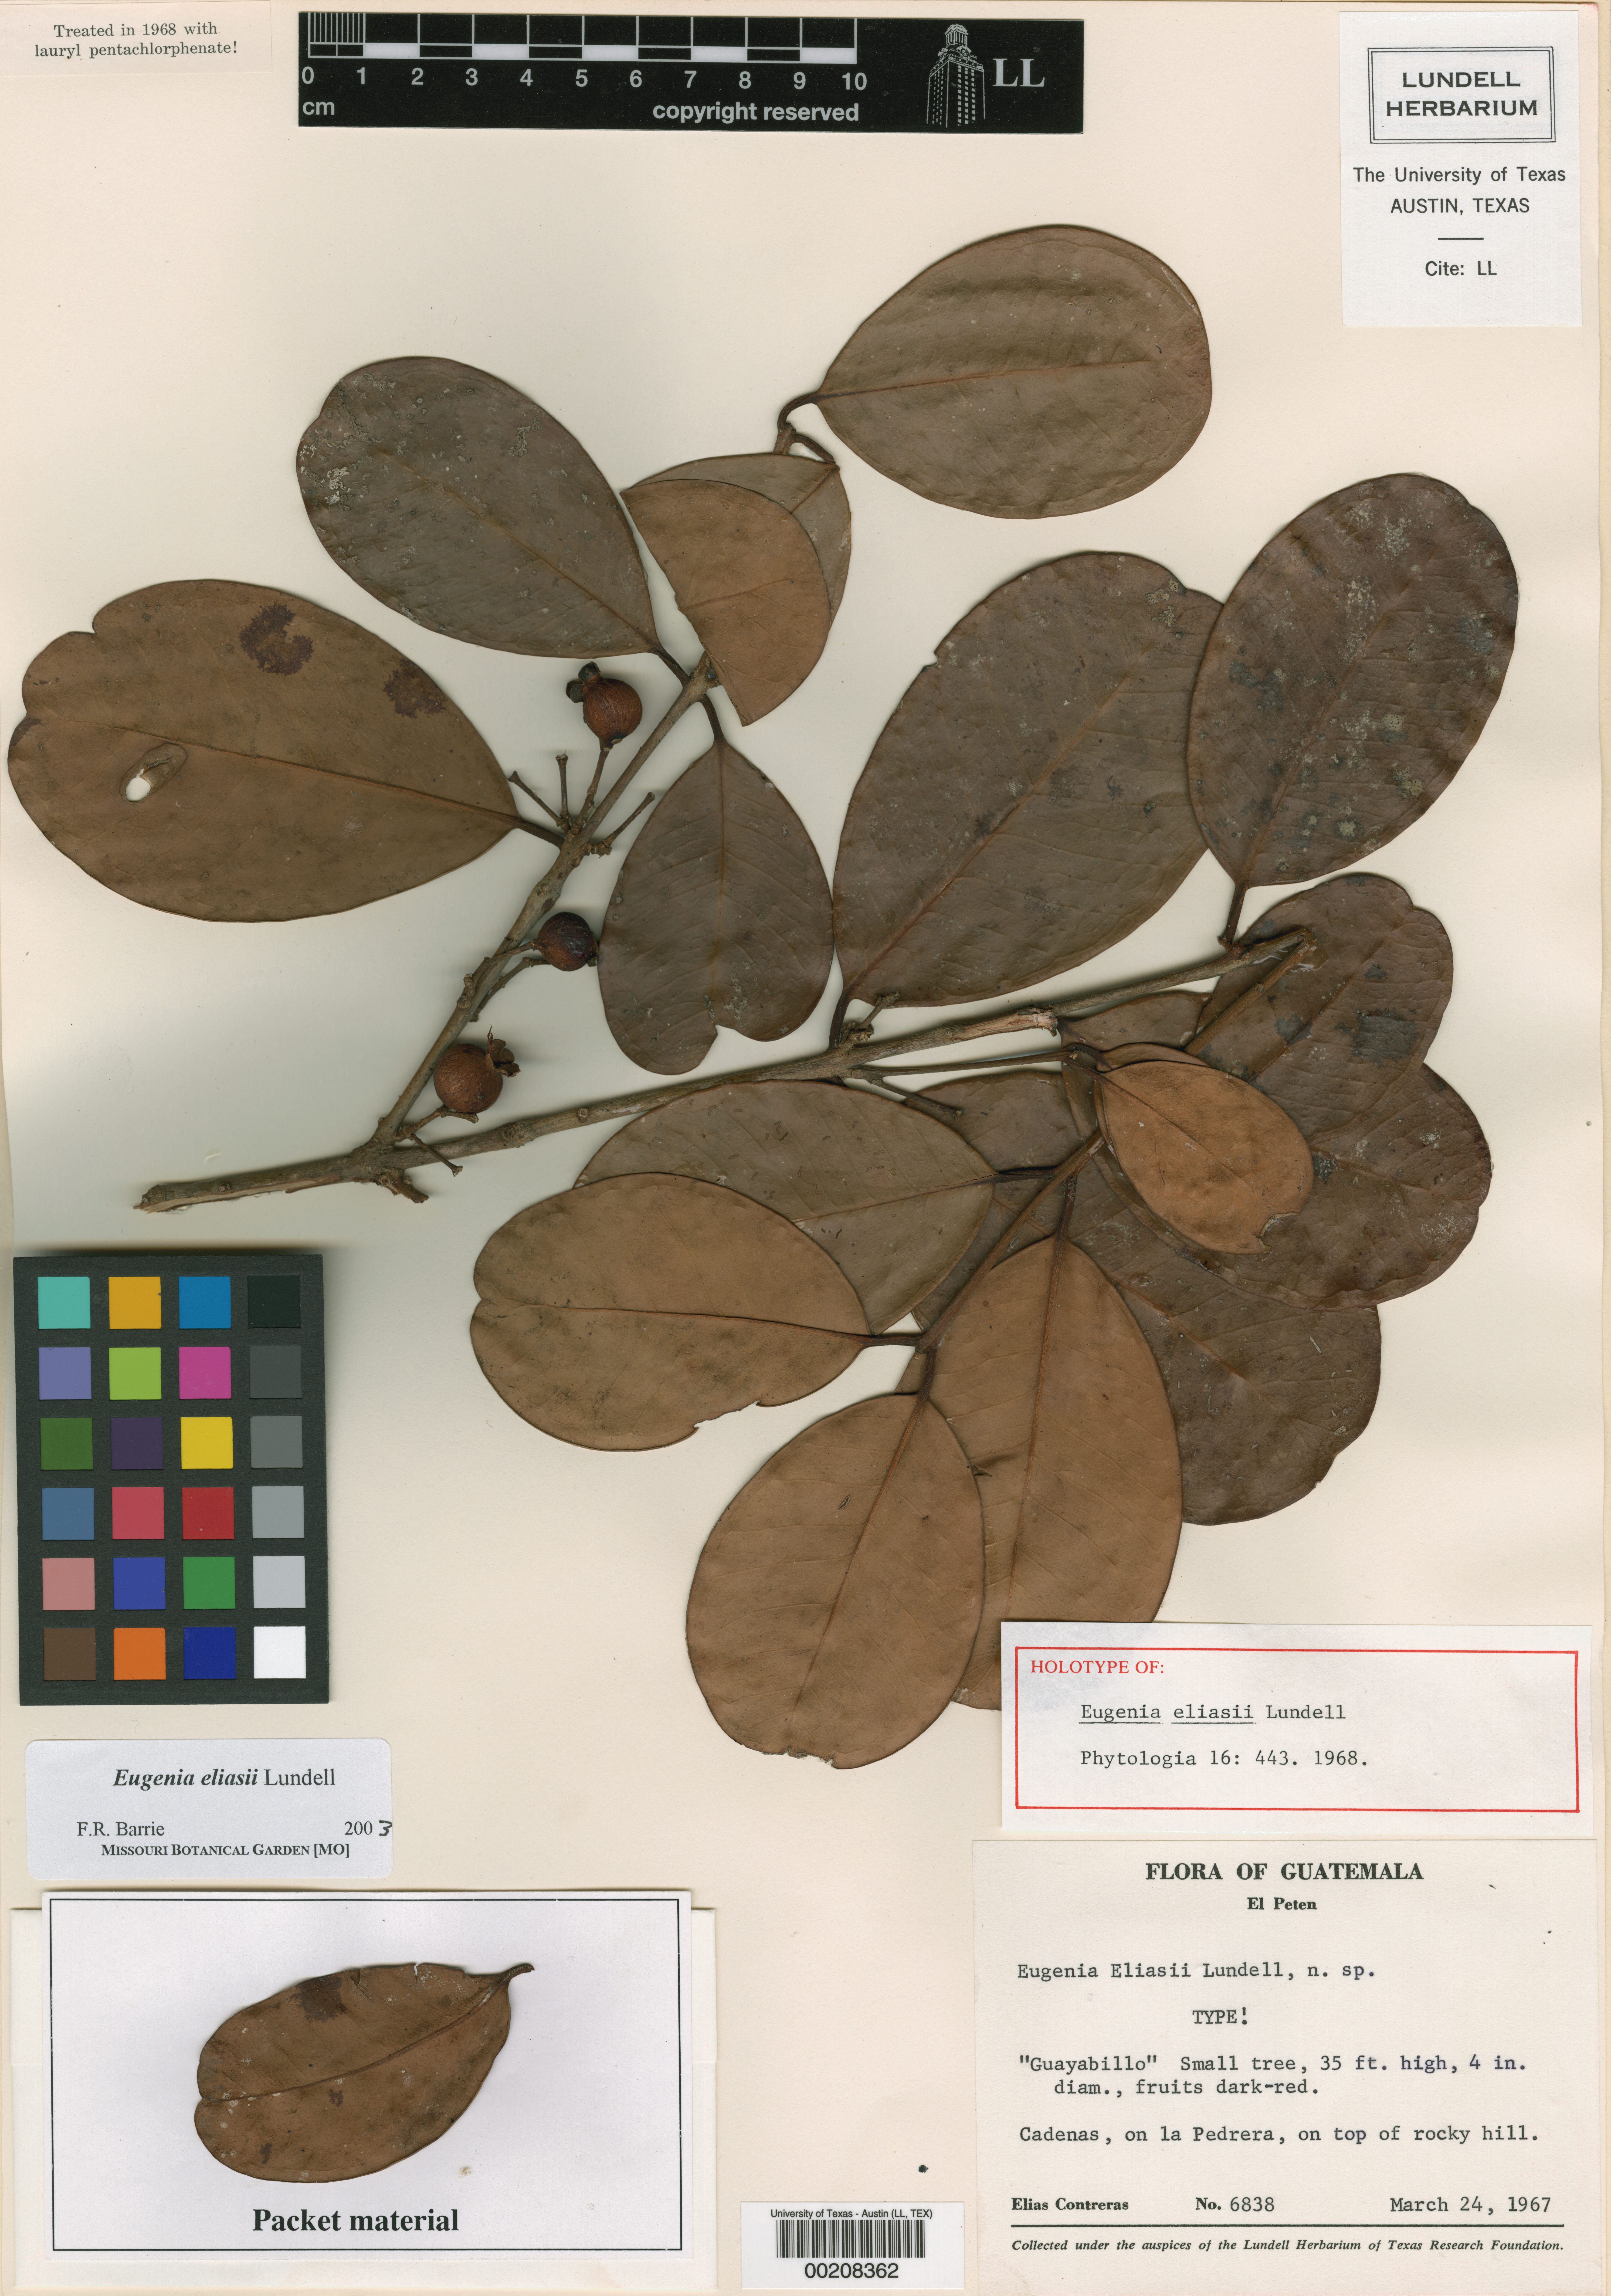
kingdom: Plantae
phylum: Tracheophyta
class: Magnoliopsida
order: Myrtales
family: Myrtaceae
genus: Eugenia
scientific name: Eugenia eliasii
